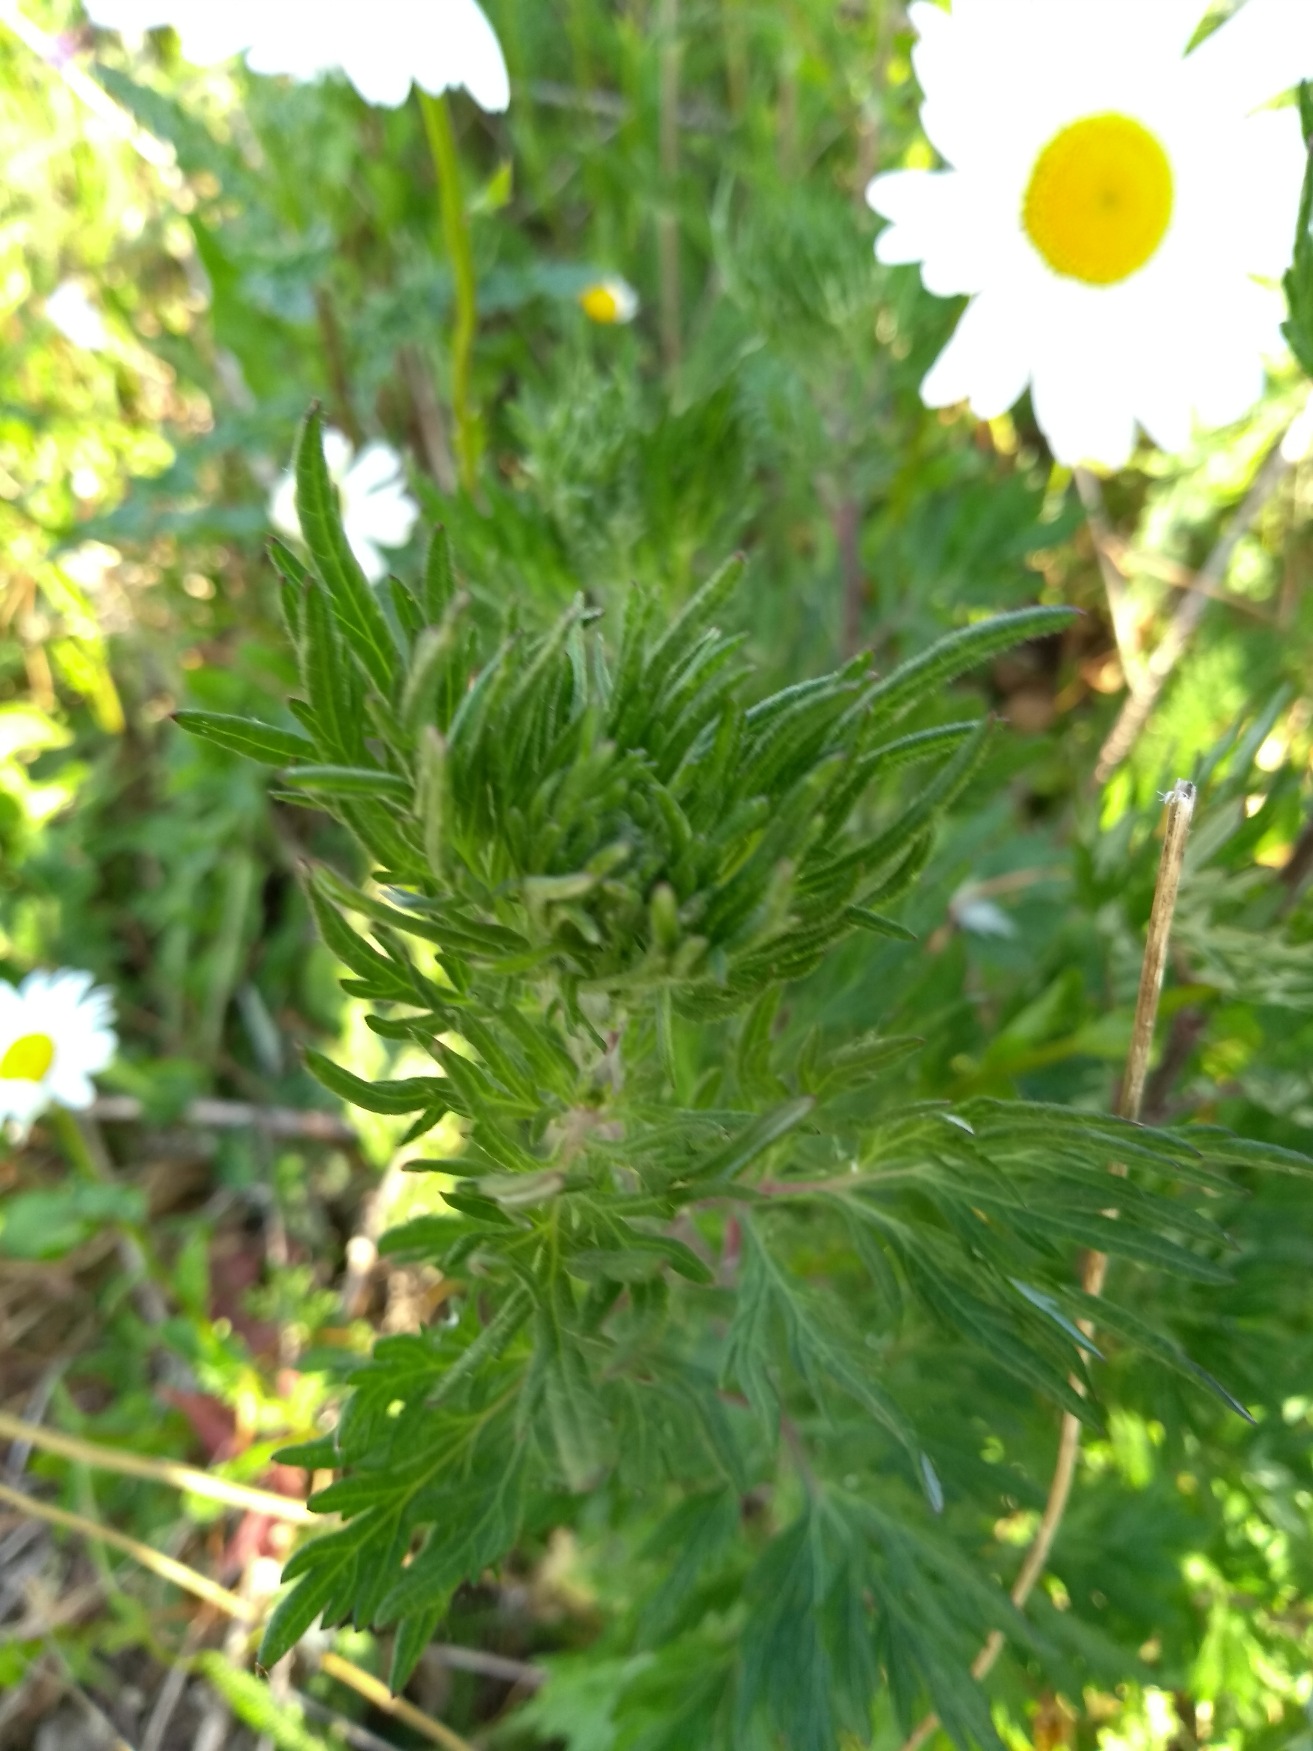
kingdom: Plantae
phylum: Tracheophyta
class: Magnoliopsida
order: Asterales
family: Asteraceae
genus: Artemisia
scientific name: Artemisia vulgaris
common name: Grå-bynke
